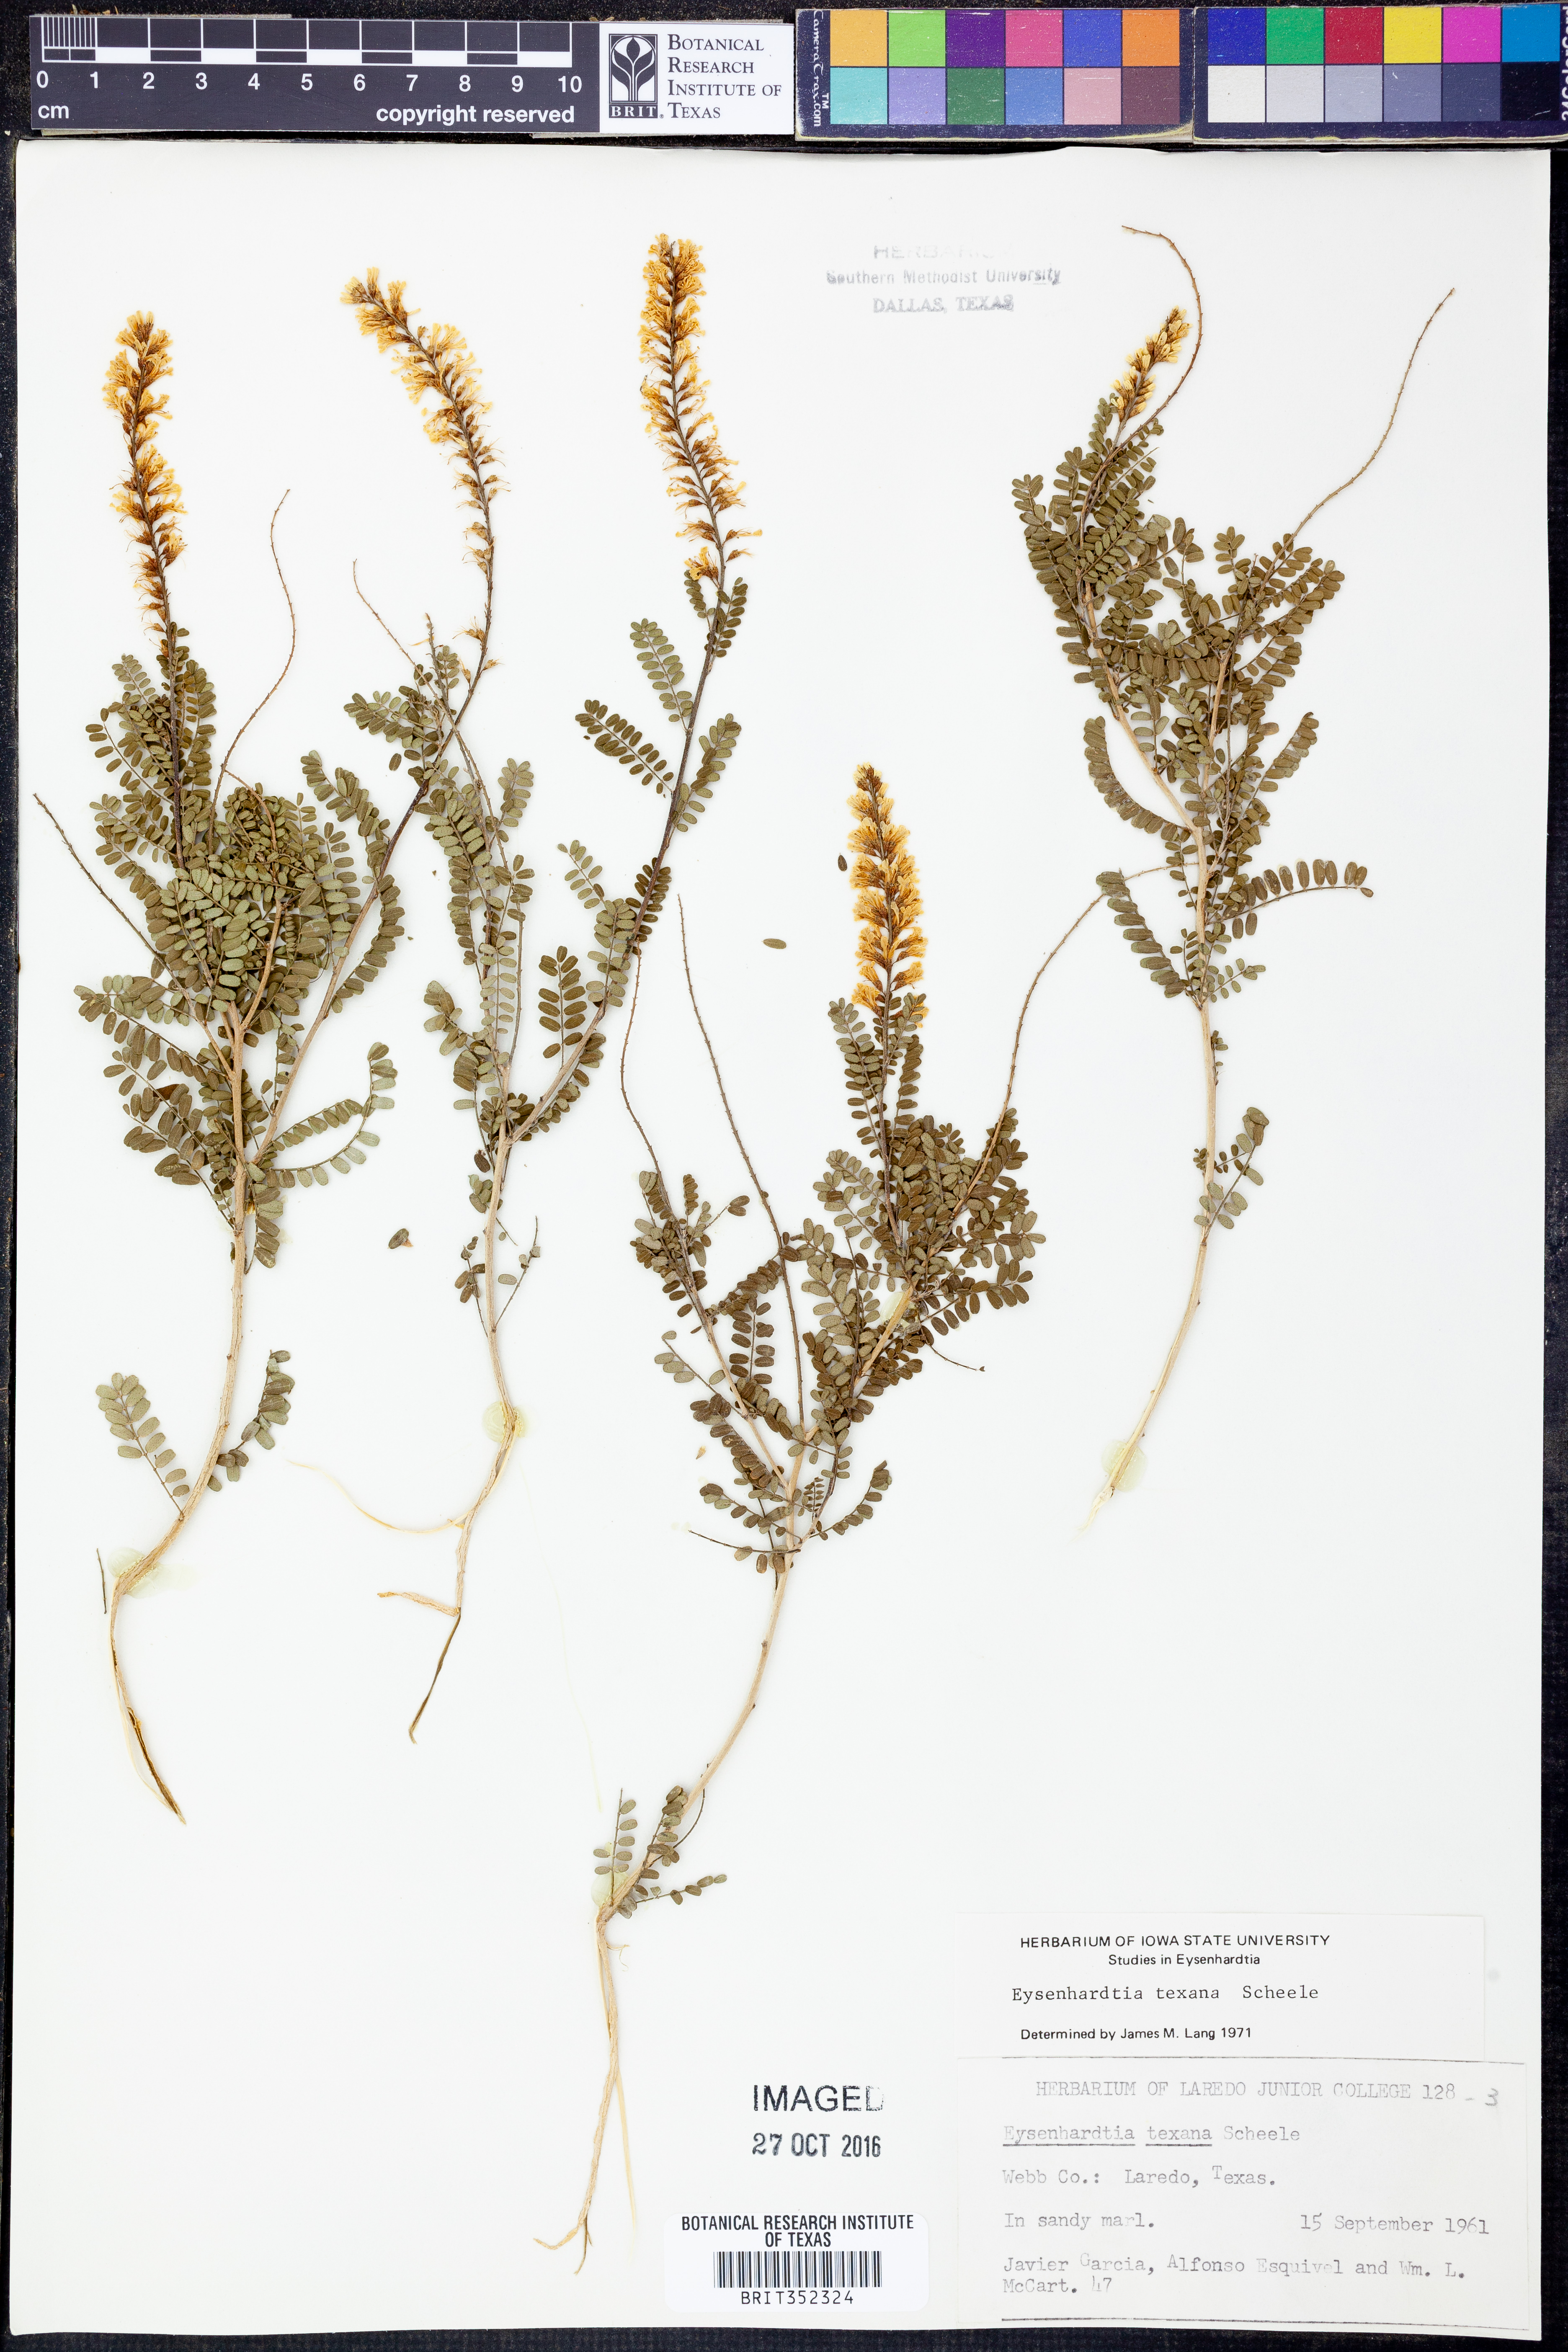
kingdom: Plantae
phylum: Tracheophyta
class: Magnoliopsida
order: Fabales
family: Fabaceae
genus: Eysenhardtia
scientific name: Eysenhardtia texana
